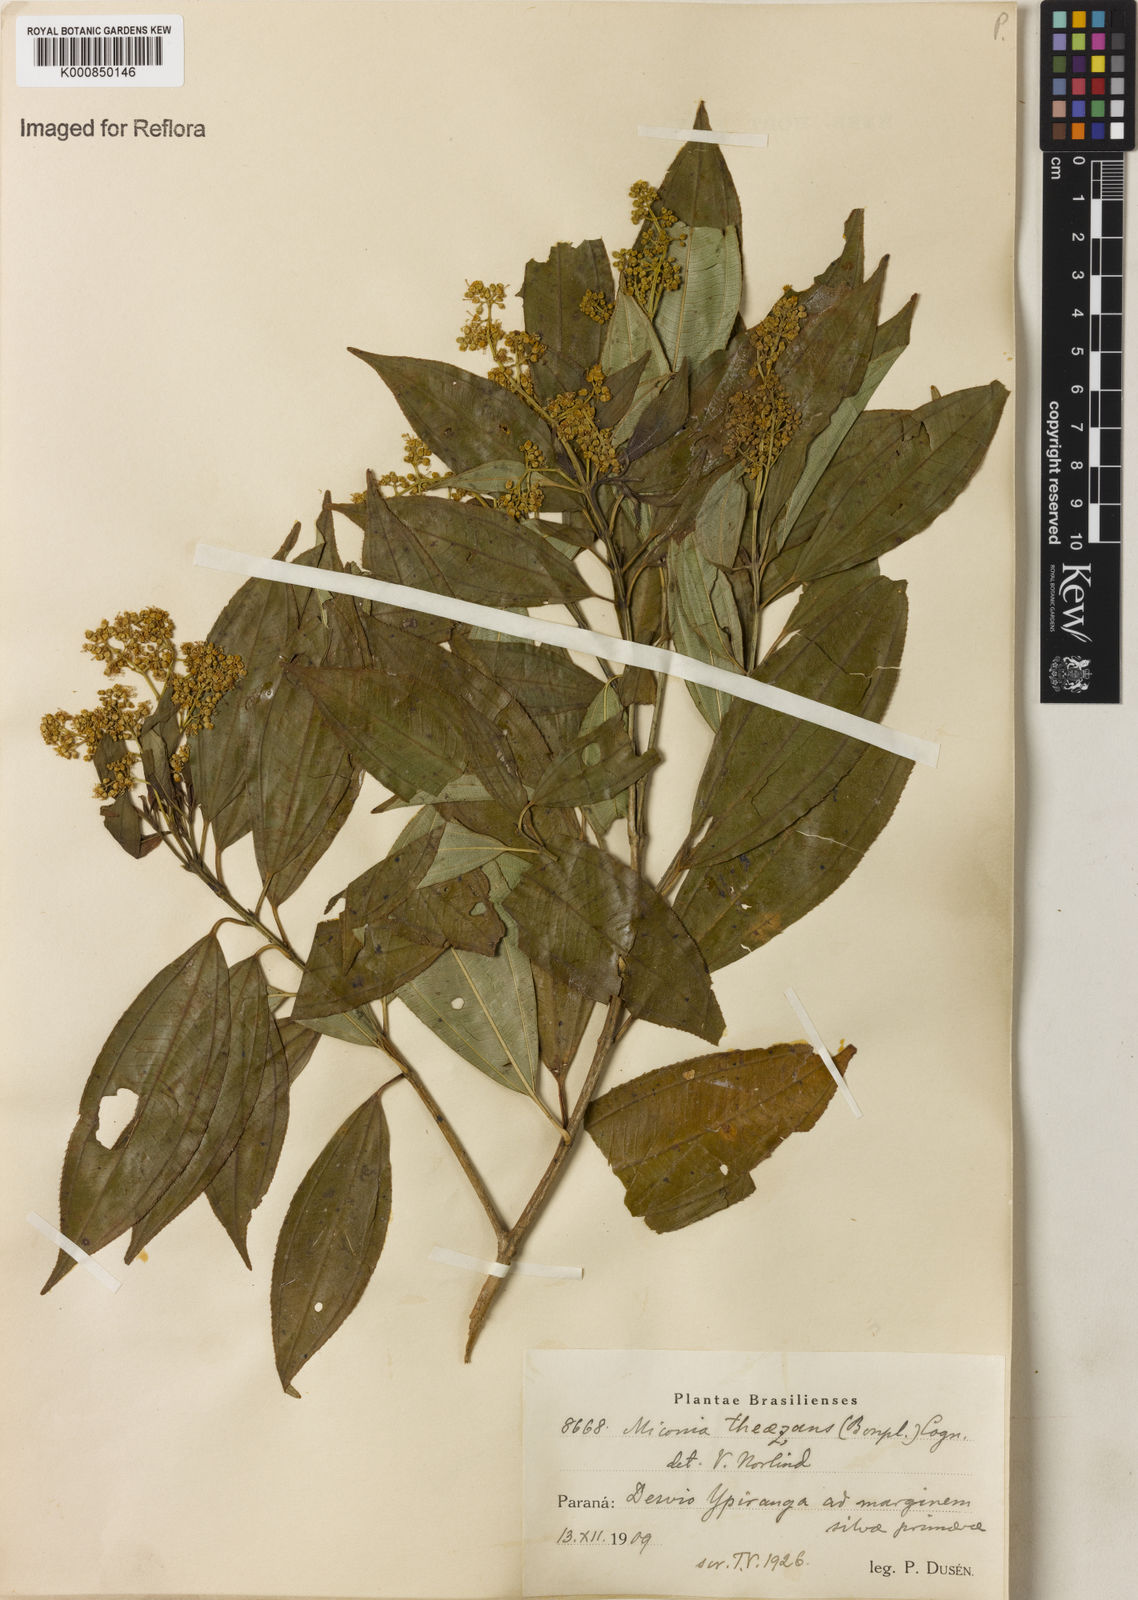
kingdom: Plantae
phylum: Tracheophyta
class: Magnoliopsida
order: Myrtales
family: Melastomataceae
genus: Miconia
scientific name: Miconia
